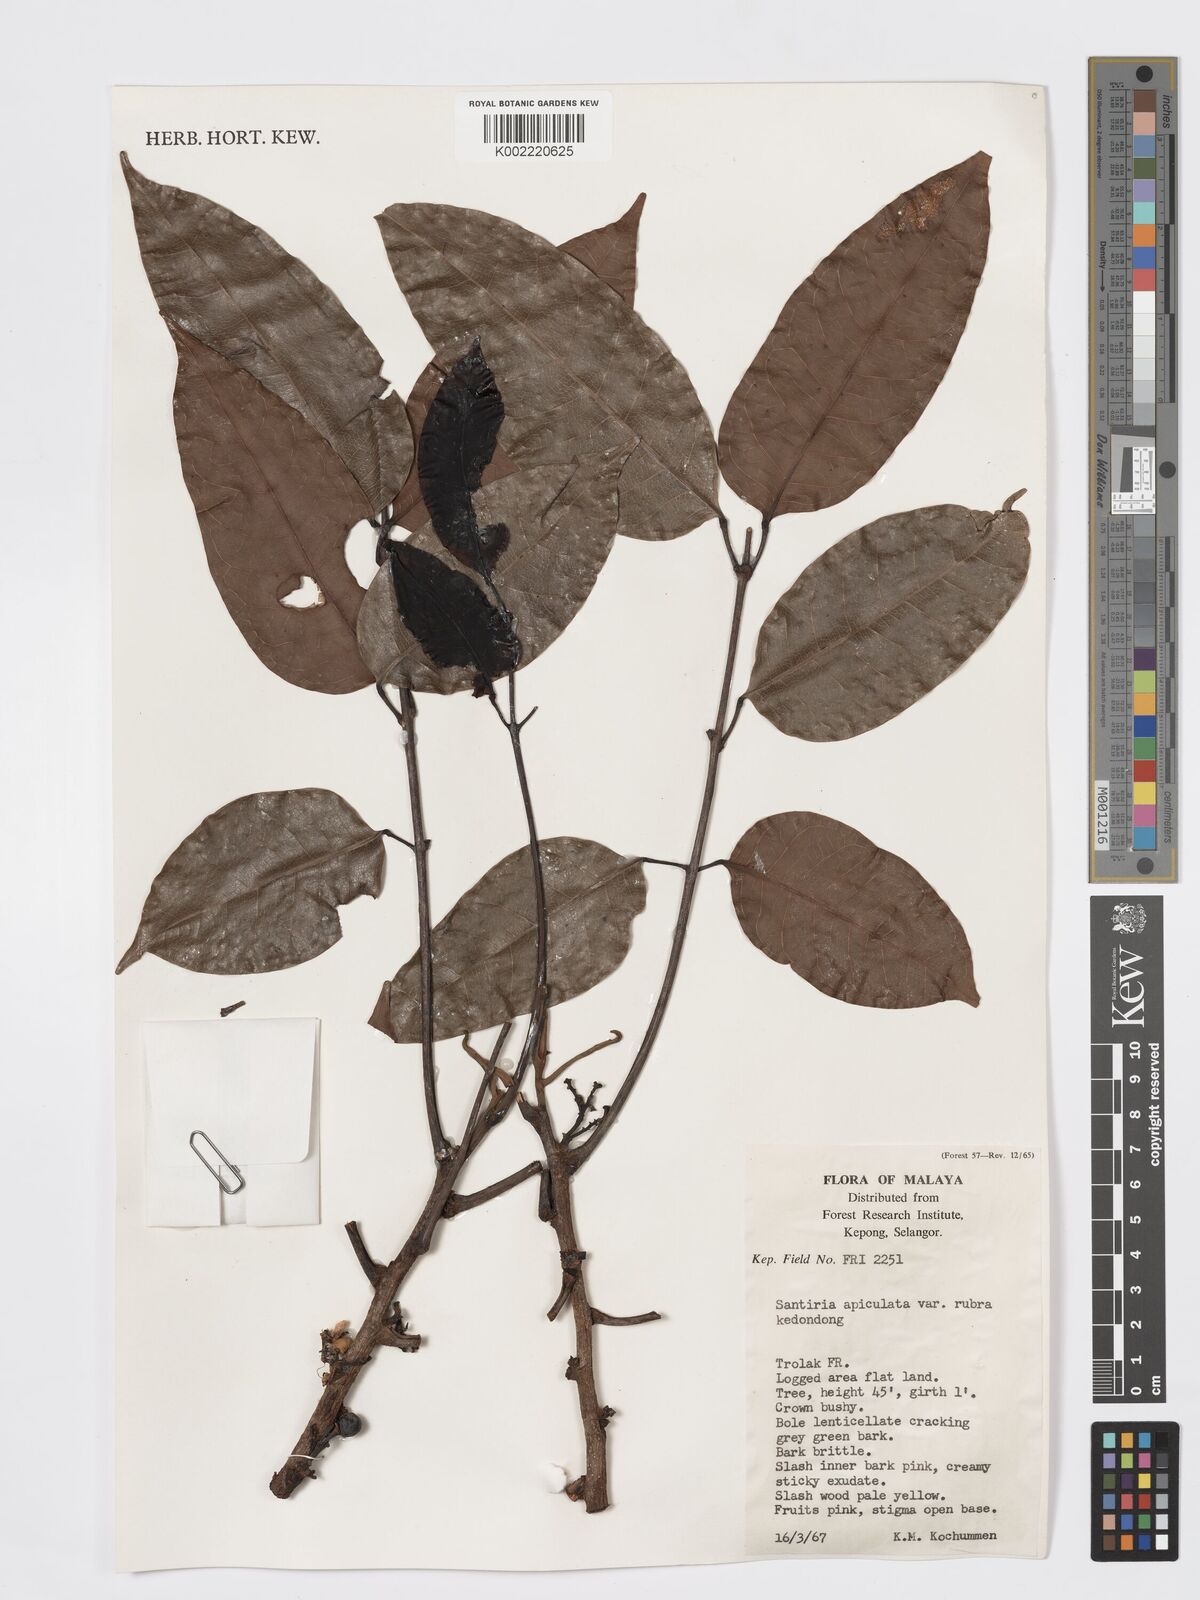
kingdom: Plantae
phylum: Tracheophyta
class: Magnoliopsida
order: Sapindales
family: Burseraceae
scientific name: Burseraceae
